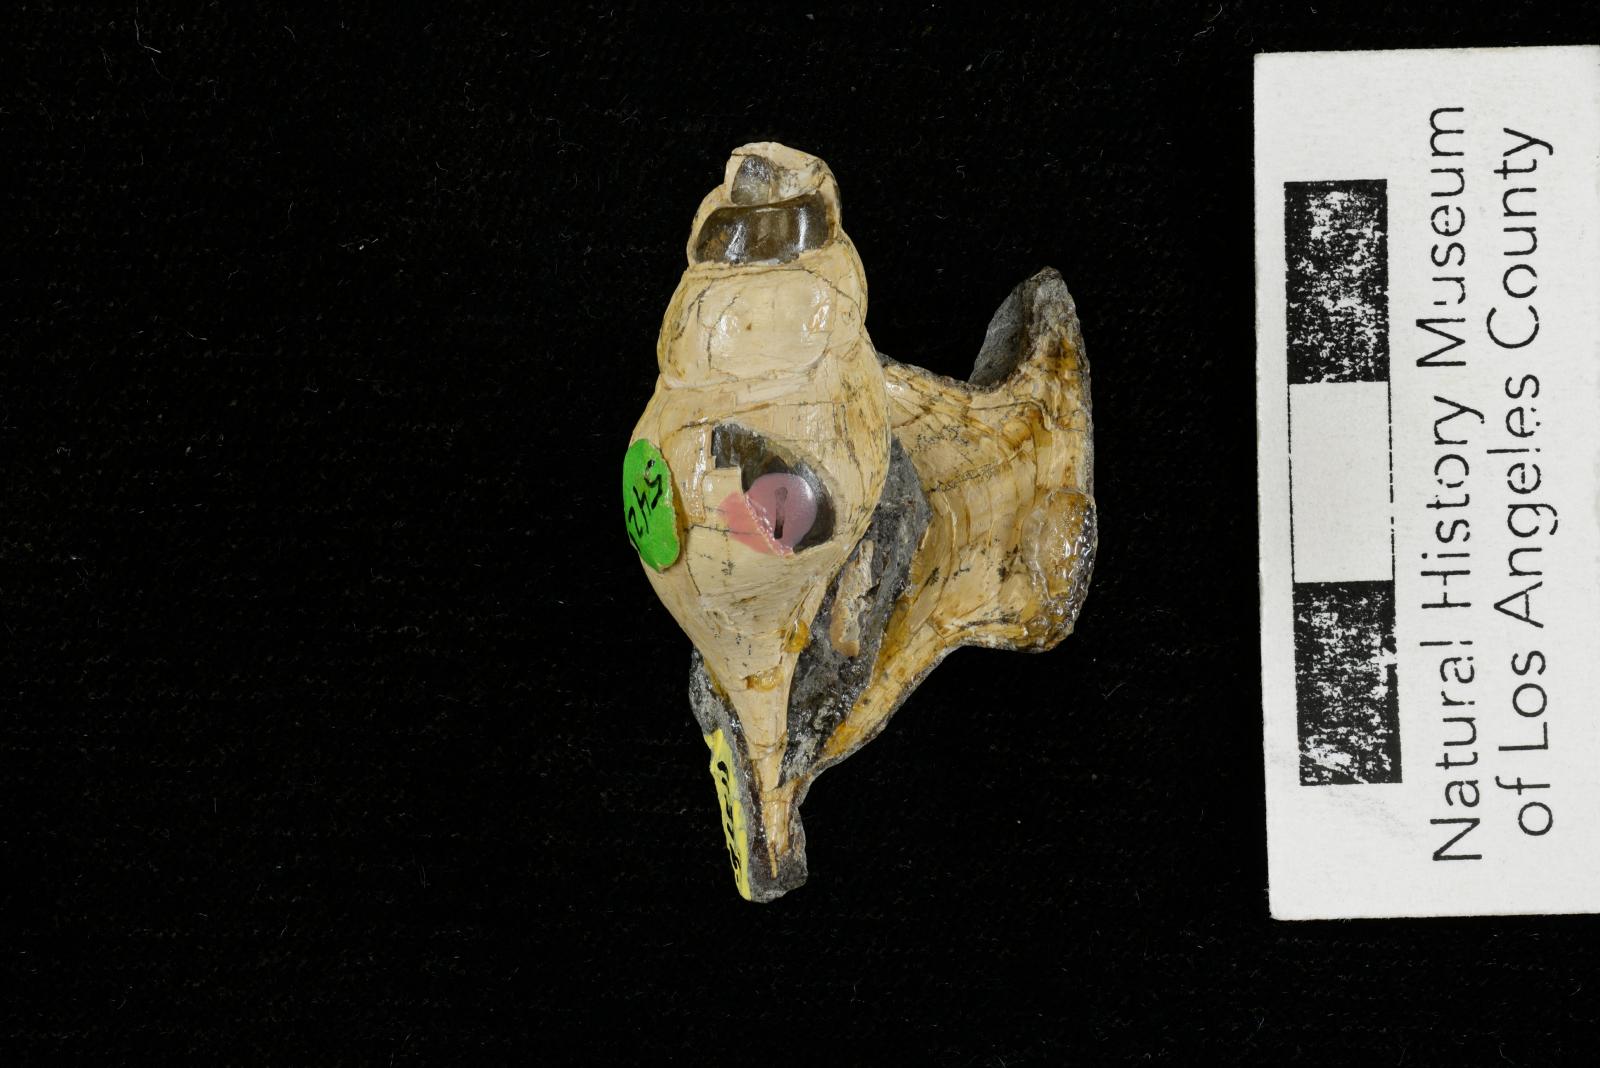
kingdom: Animalia
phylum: Mollusca
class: Gastropoda
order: Littorinimorpha
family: Aporrhaidae
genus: Latiala
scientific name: Latiala sigma
